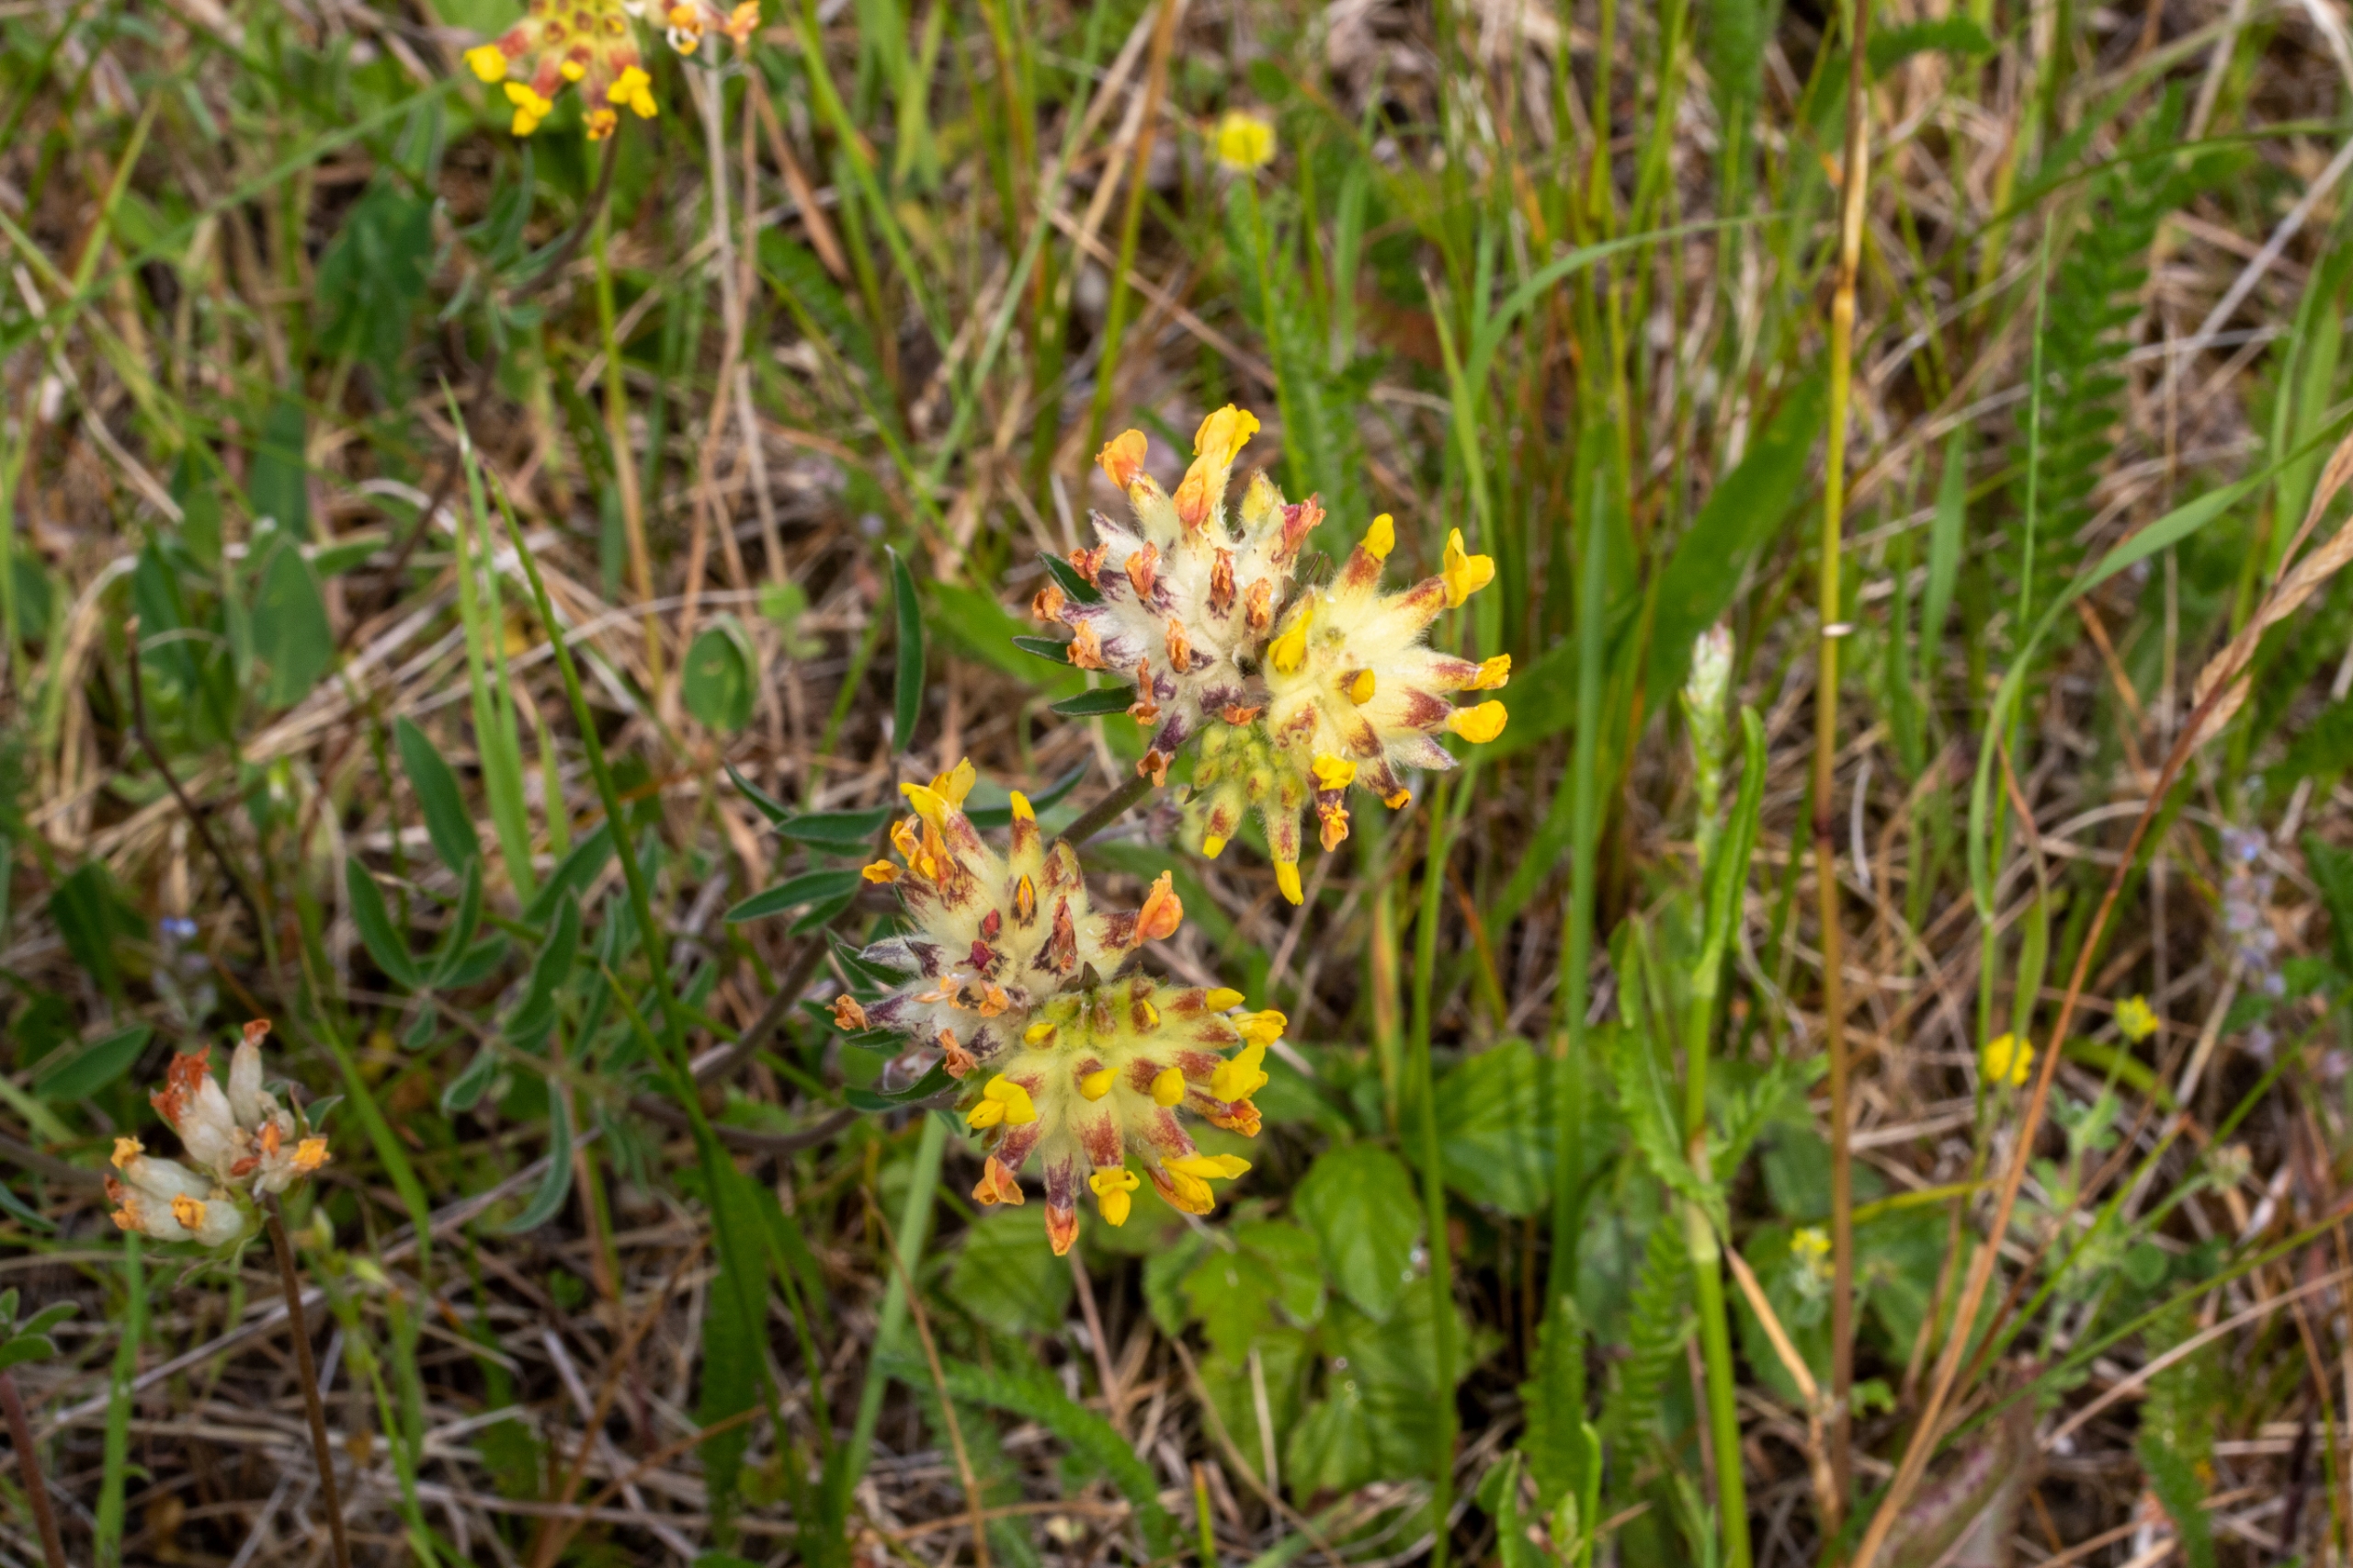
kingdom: Plantae
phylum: Tracheophyta
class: Magnoliopsida
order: Fabales
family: Fabaceae
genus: Anthyllis
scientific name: Anthyllis vulneraria
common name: Rundbælg
